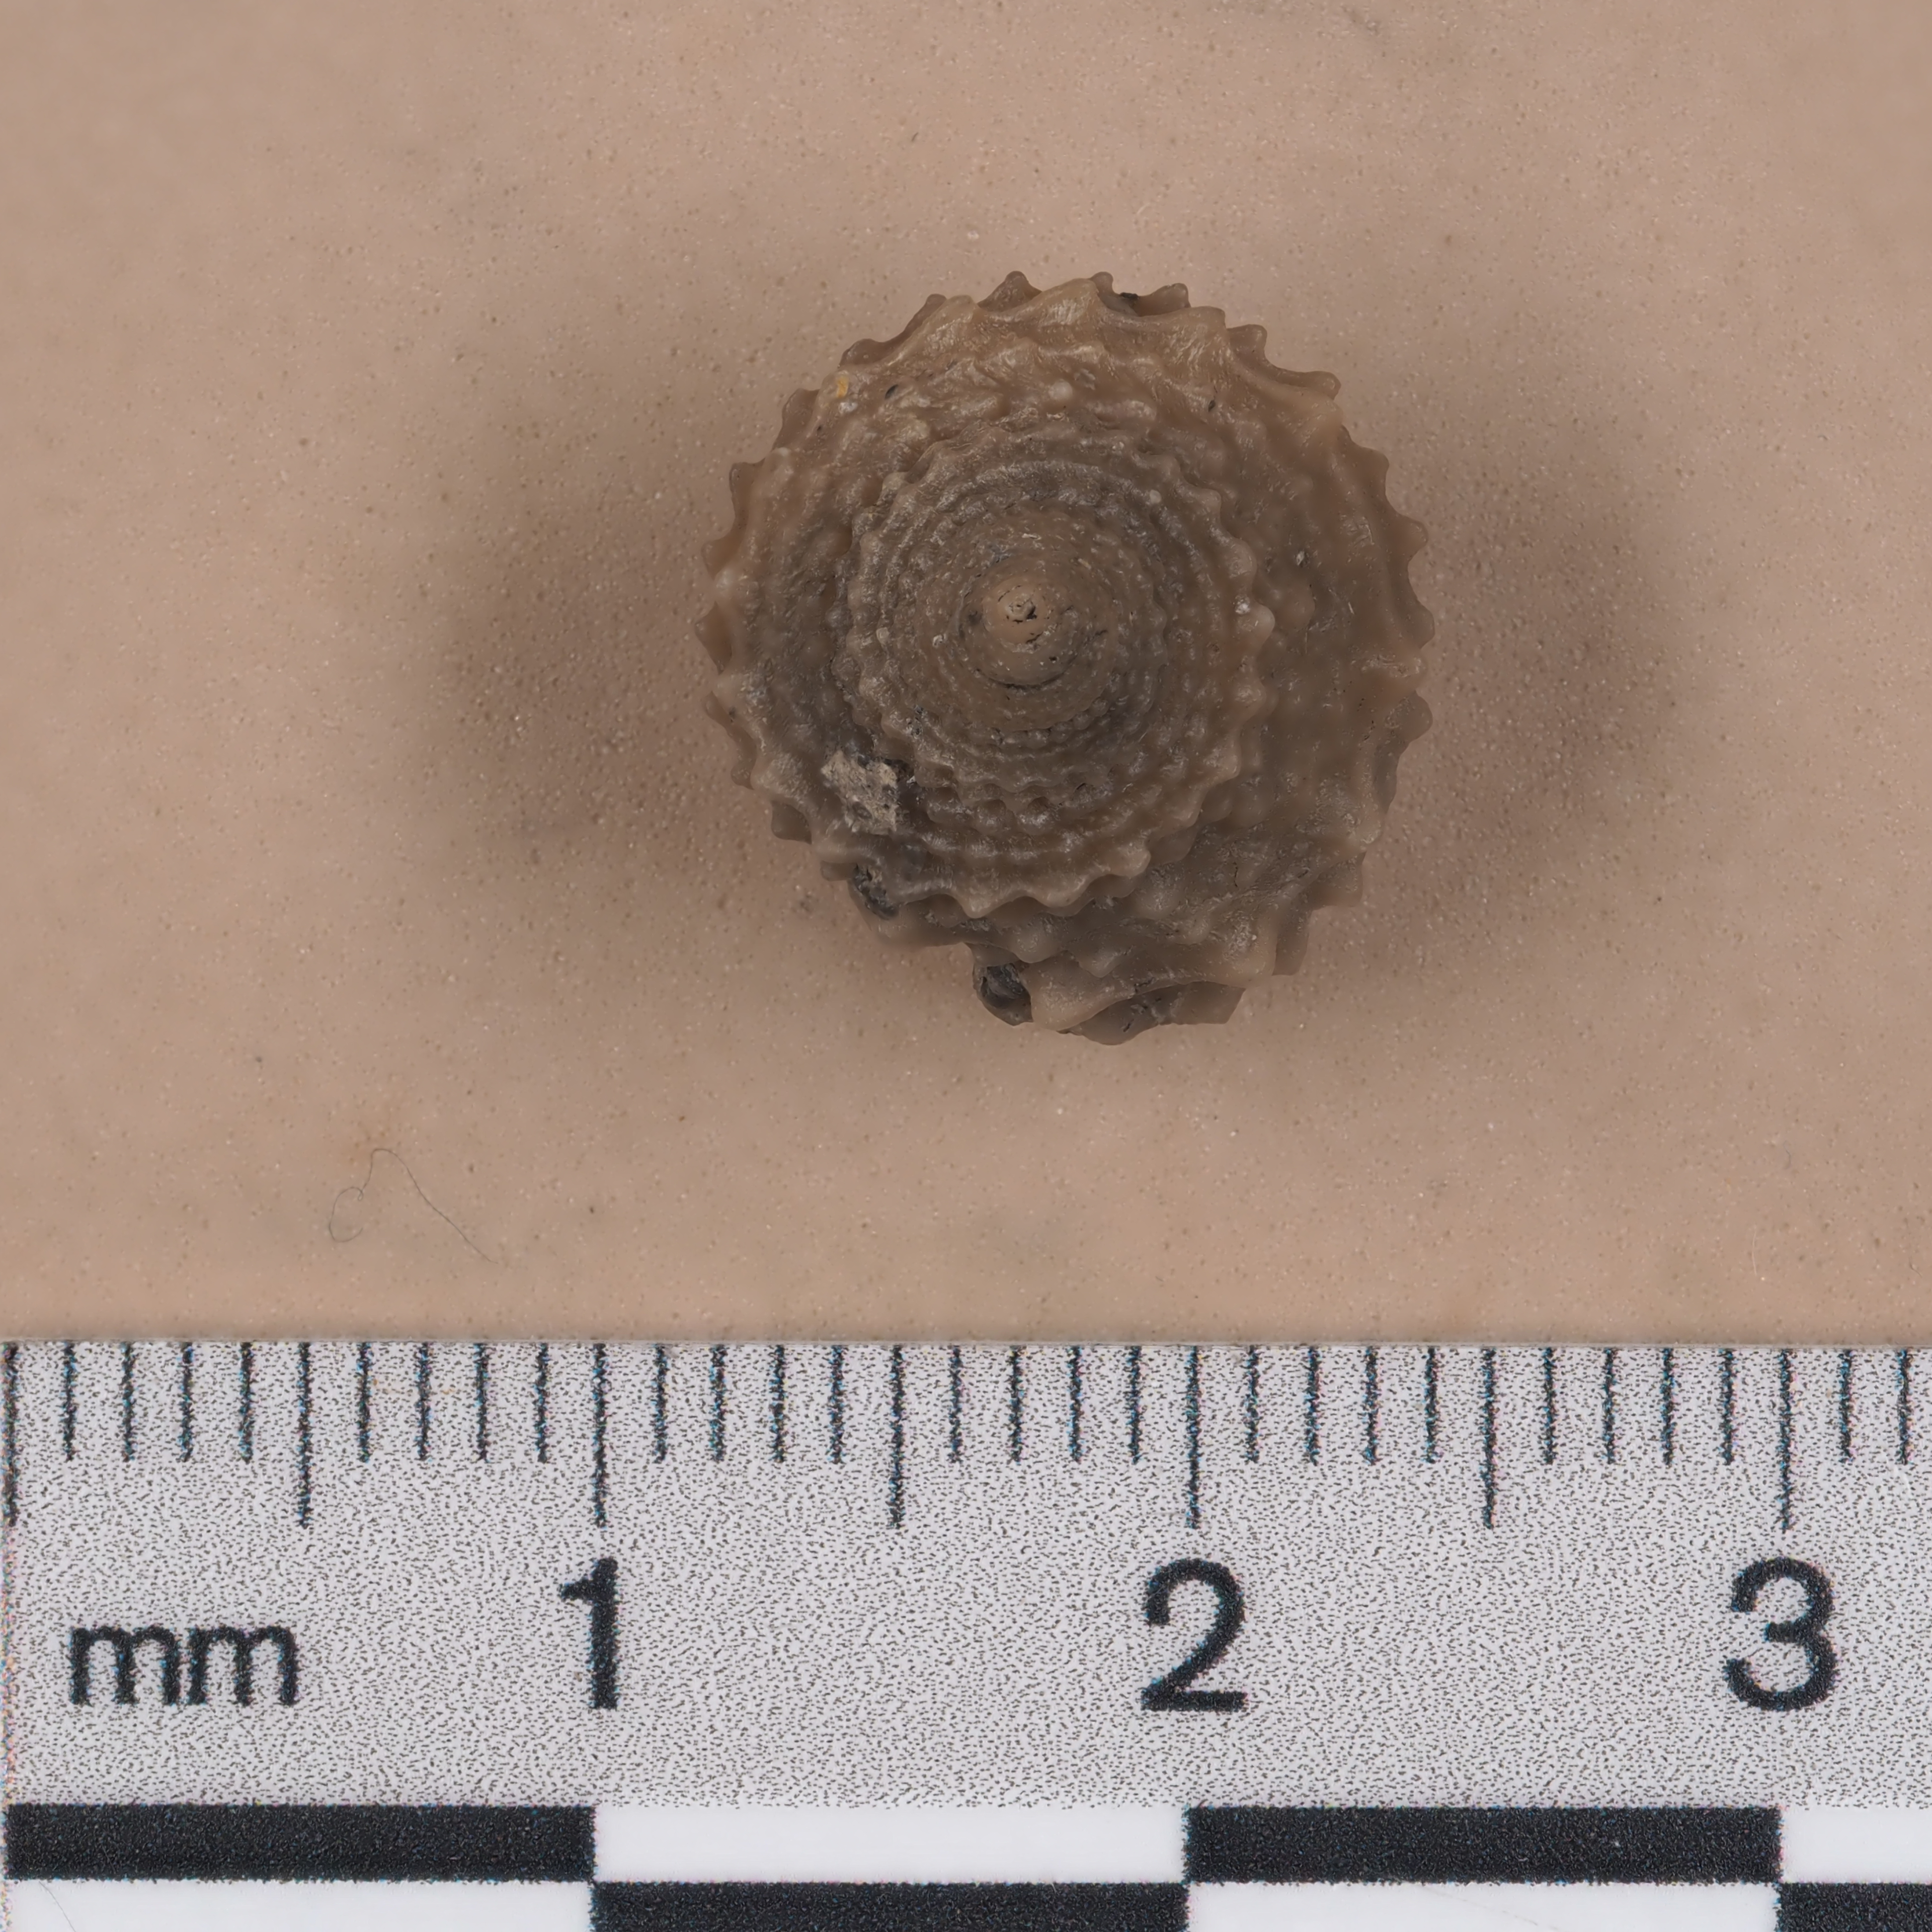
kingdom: Animalia
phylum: Mollusca
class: Gastropoda
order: Seguenziida
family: Eucycloscalidae
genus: Ambercyclus
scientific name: Ambercyclus
